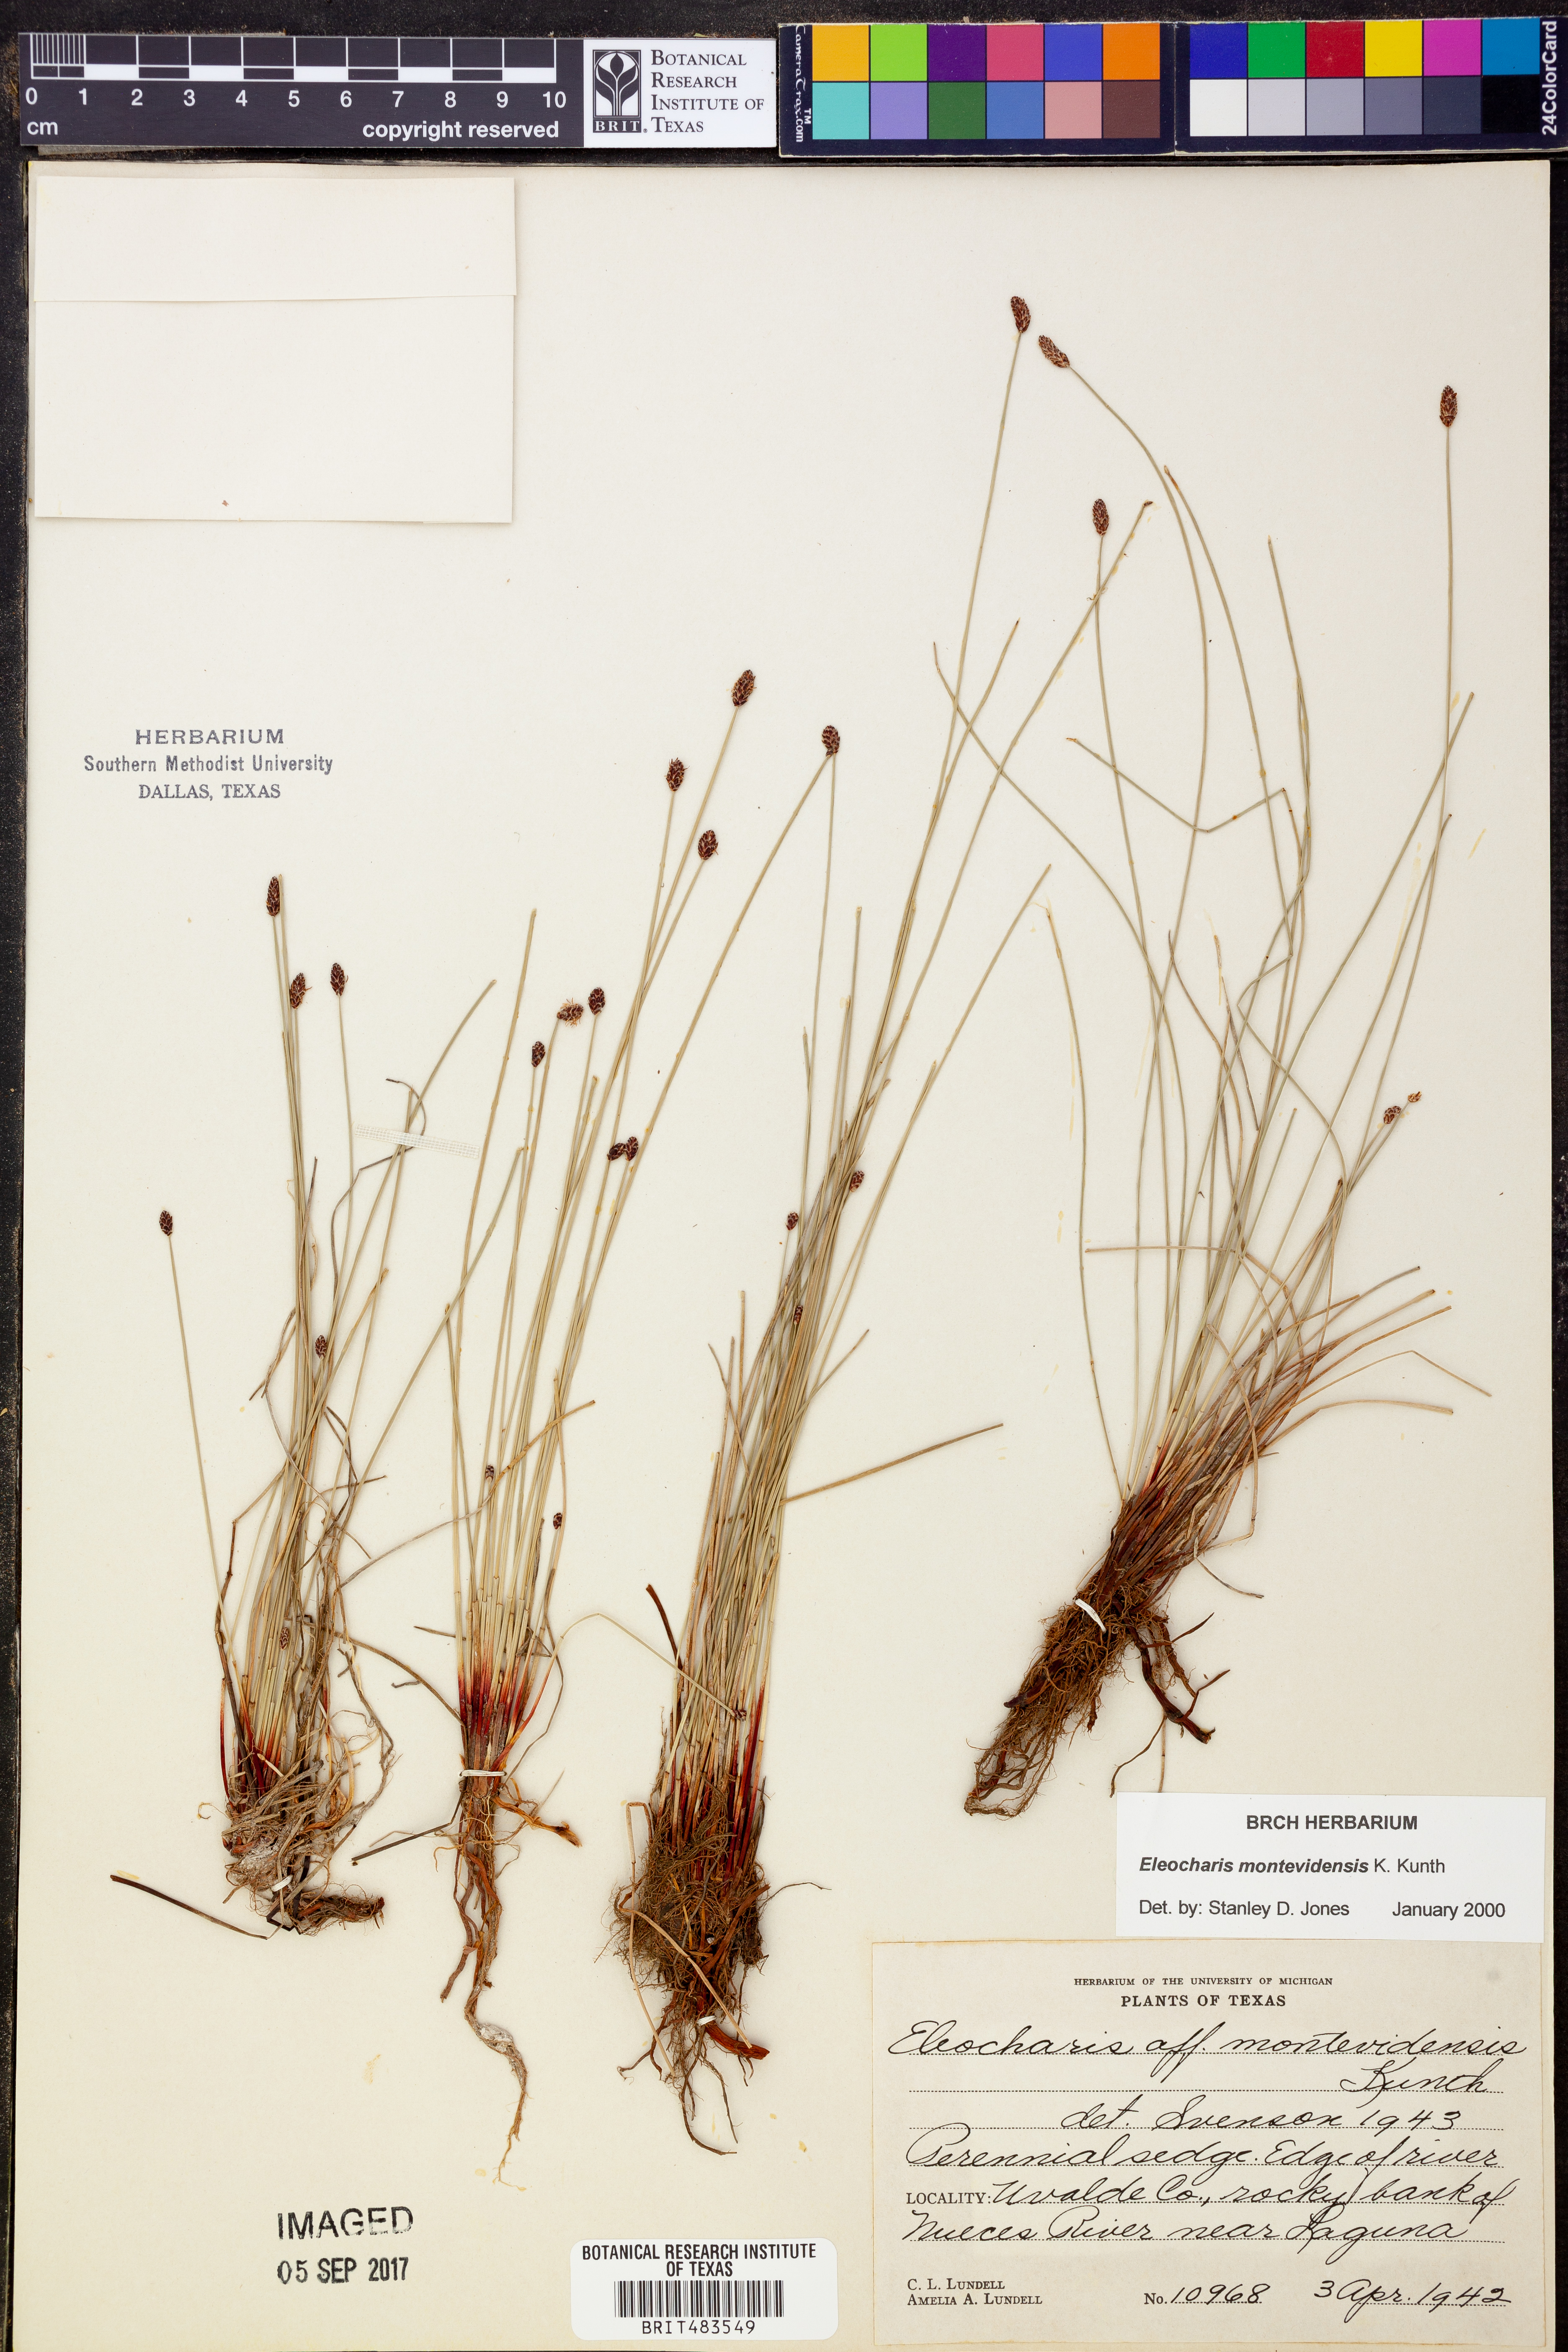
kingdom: Plantae
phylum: Tracheophyta
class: Liliopsida
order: Poales
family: Cyperaceae
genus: Eleocharis
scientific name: Eleocharis montevidensis
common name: Sand spike-rush
